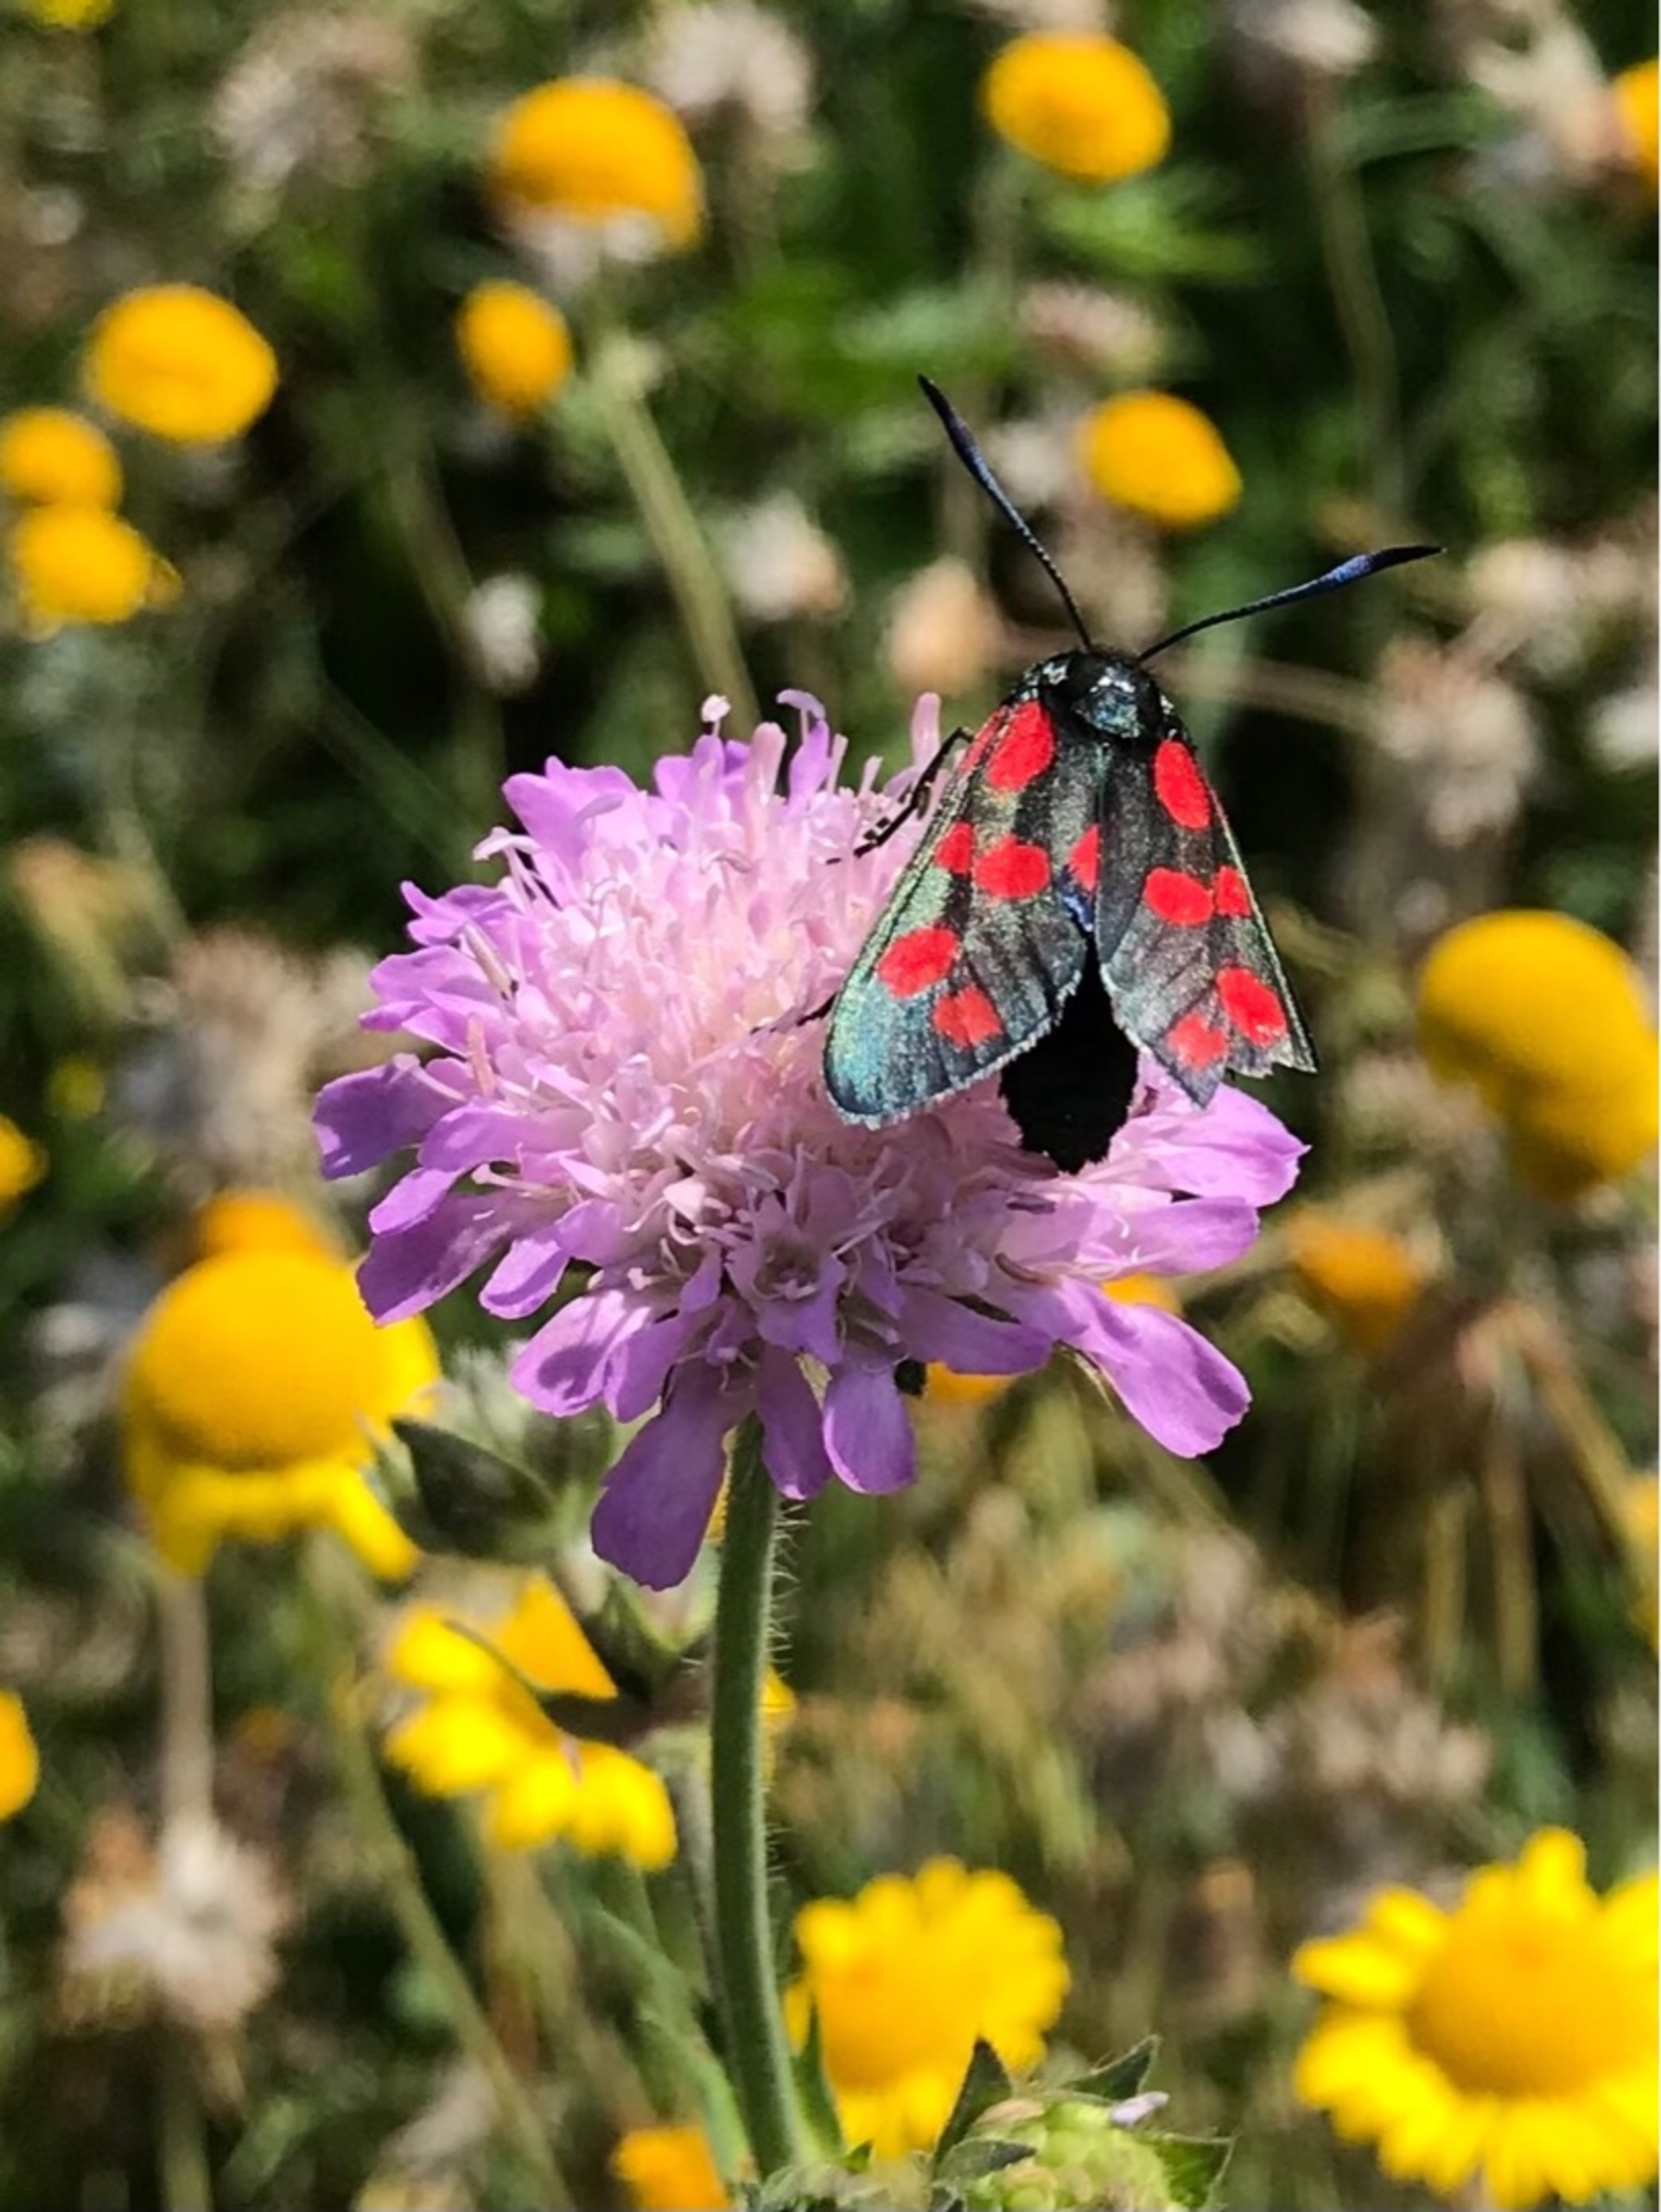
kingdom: Animalia
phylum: Arthropoda
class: Insecta
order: Lepidoptera
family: Zygaenidae
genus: Zygaena
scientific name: Zygaena filipendulae
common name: Seksplettet køllesværmer
